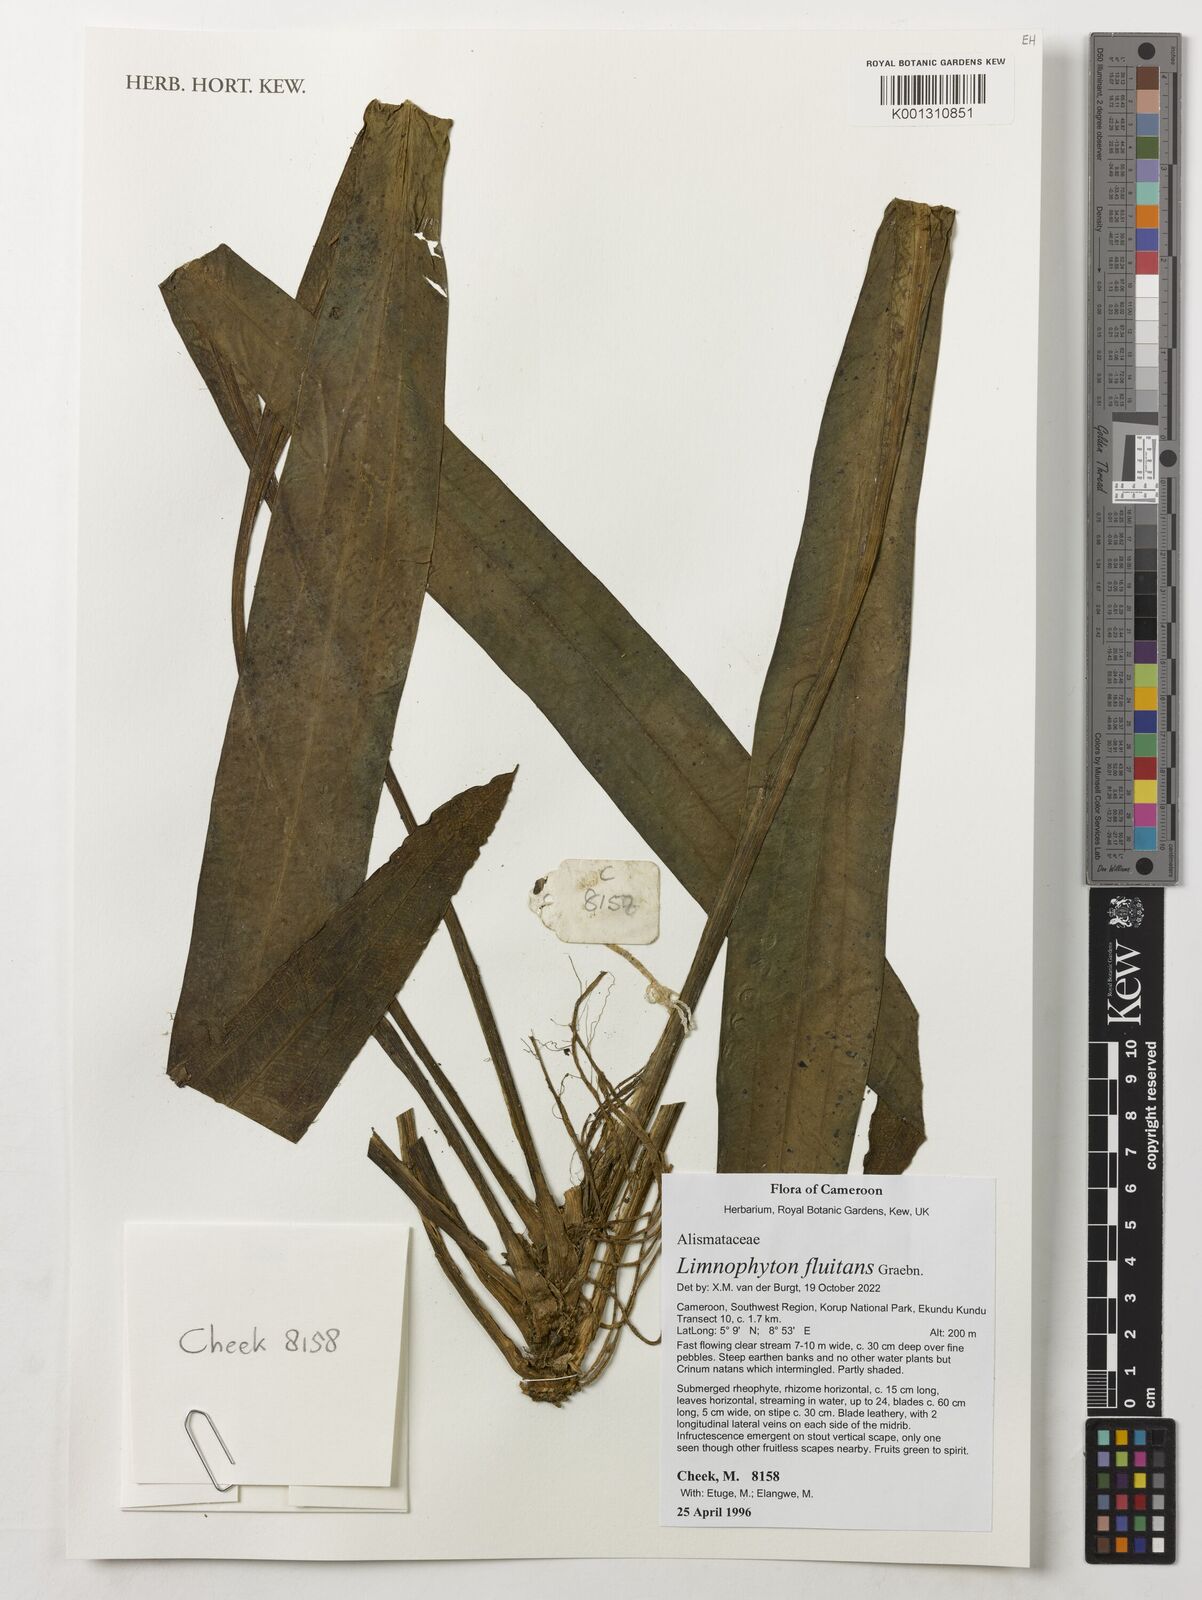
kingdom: Plantae
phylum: Tracheophyta
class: Liliopsida
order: Alismatales
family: Alismataceae
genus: Limnophyton
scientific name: Limnophyton fluitans
